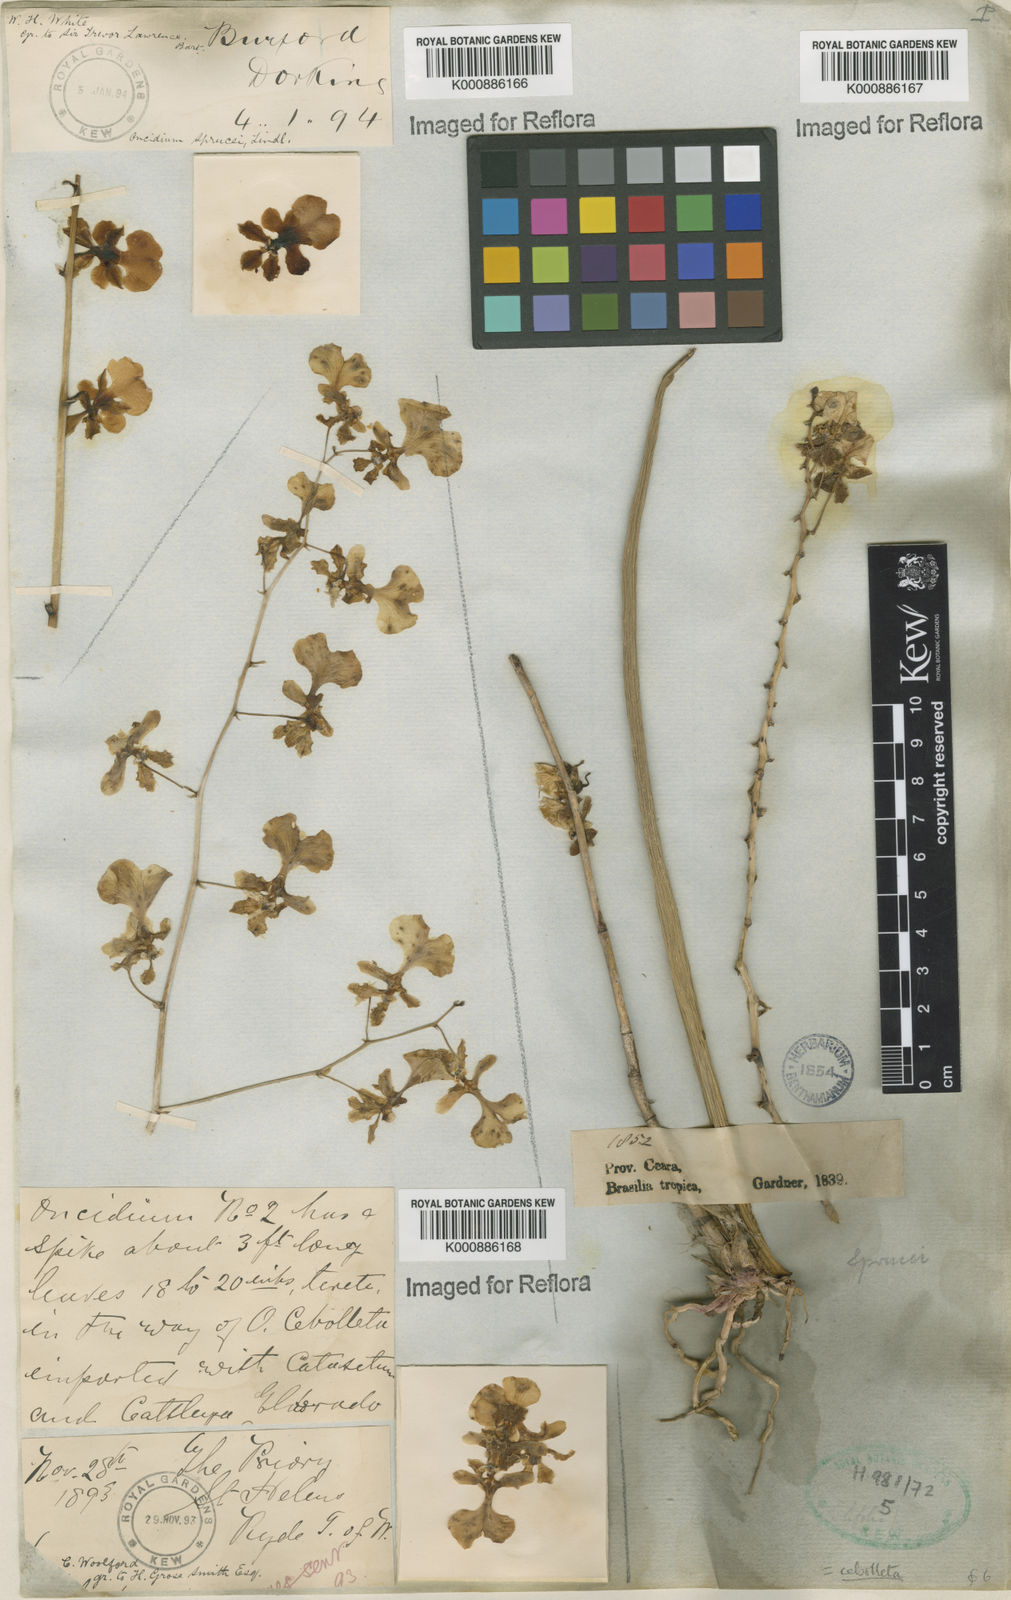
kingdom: Plantae
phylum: Tracheophyta
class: Liliopsida
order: Asparagales
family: Orchidaceae
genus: Trichocentrum
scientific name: Trichocentrum cebolleta
